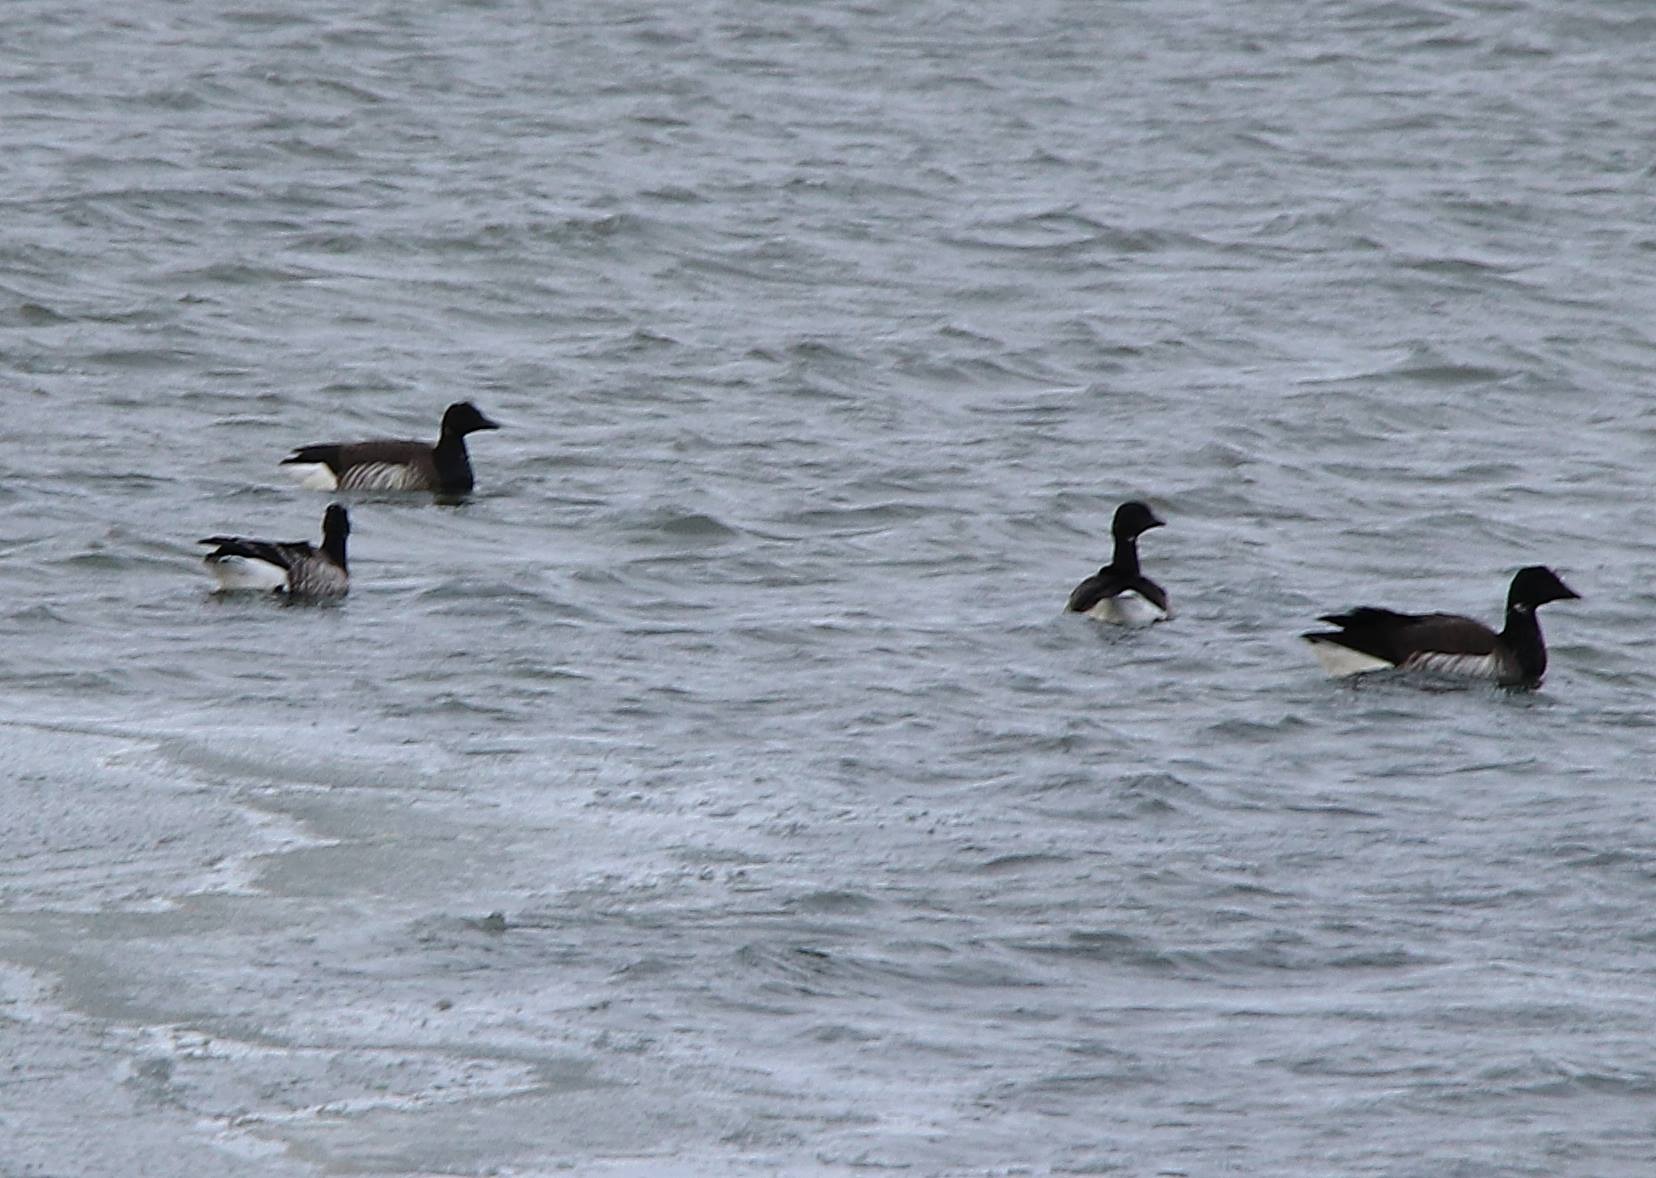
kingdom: Animalia
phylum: Chordata
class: Aves
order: Anseriformes
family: Anatidae
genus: Branta
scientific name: Branta bernicla
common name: Knortegås
